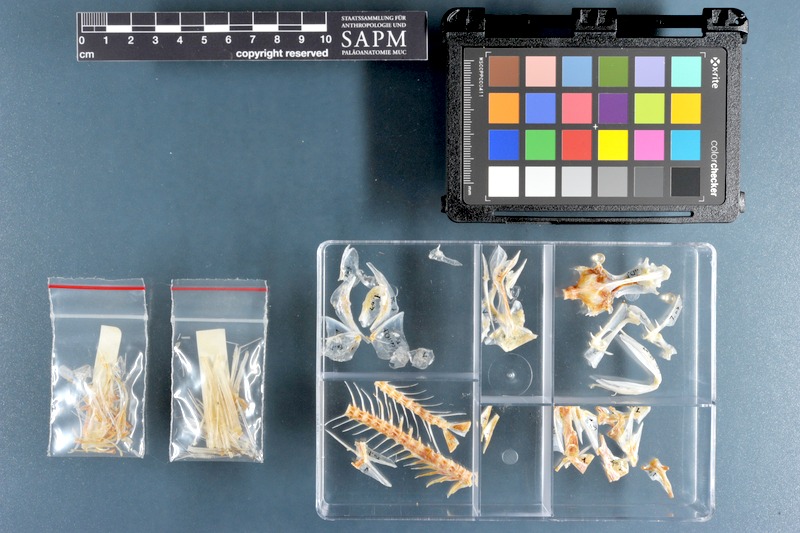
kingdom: Animalia
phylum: Chordata
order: Perciformes
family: Apogonidae
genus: Cheilodipterus
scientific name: Cheilodipterus macrodon
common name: Eight-lined cardinalfish
